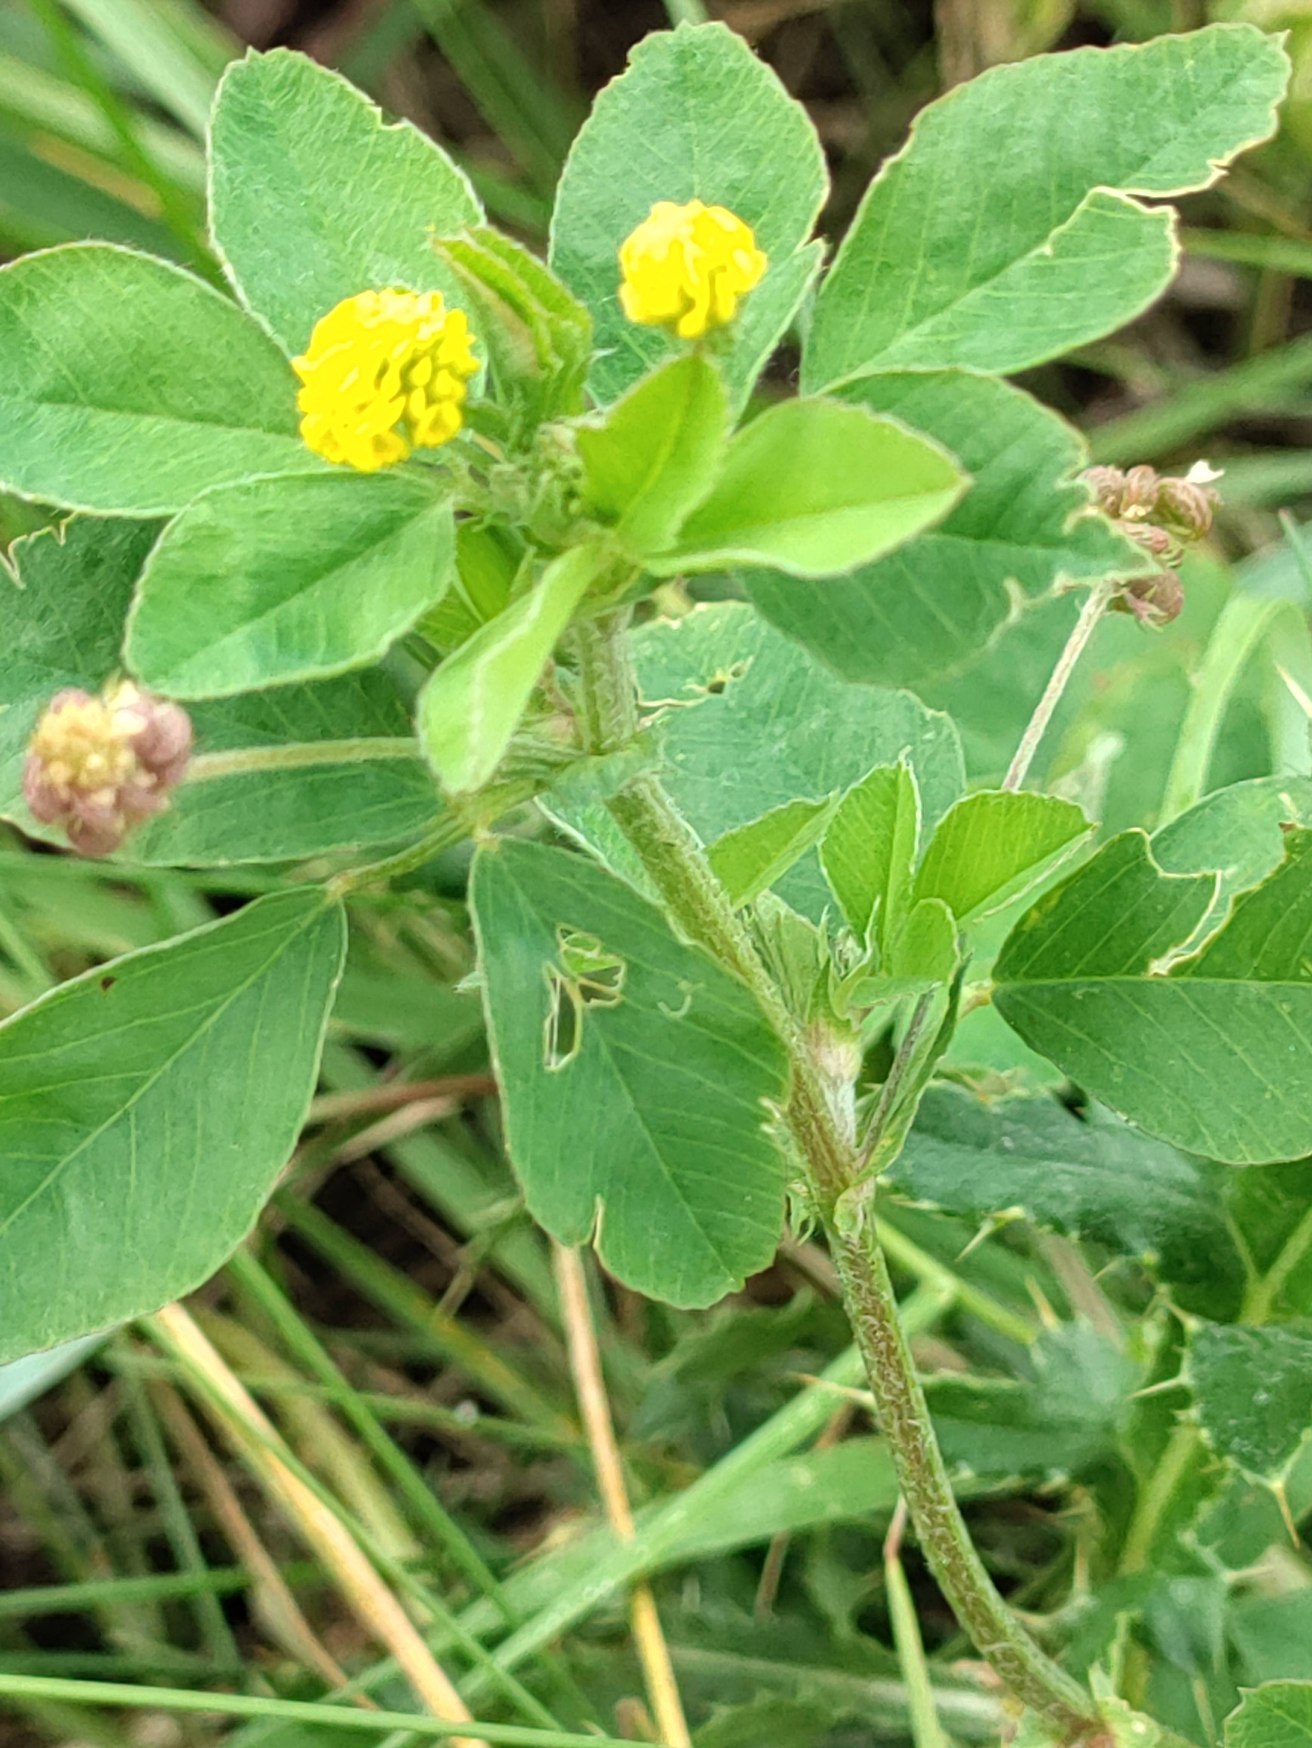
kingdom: Plantae
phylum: Tracheophyta
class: Magnoliopsida
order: Fabales
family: Fabaceae
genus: Medicago
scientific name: Medicago lupulina
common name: Humle-sneglebælg
